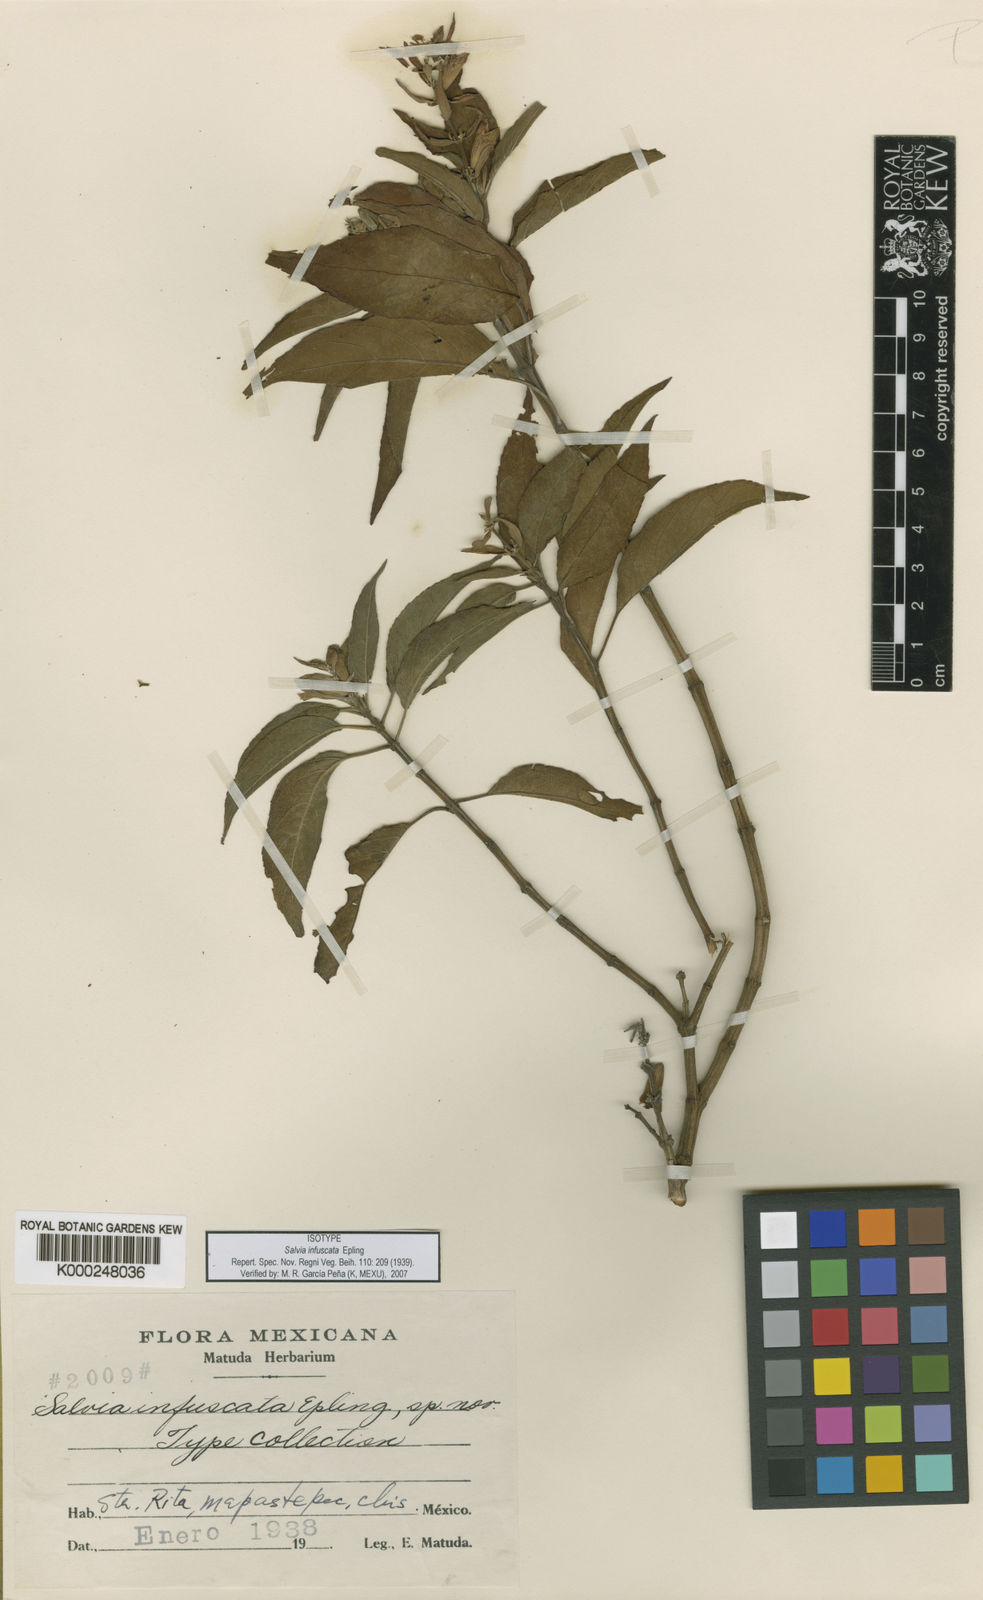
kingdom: Plantae
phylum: Tracheophyta
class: Magnoliopsida
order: Lamiales
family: Lamiaceae
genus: Salvia
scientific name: Salvia infuscata
